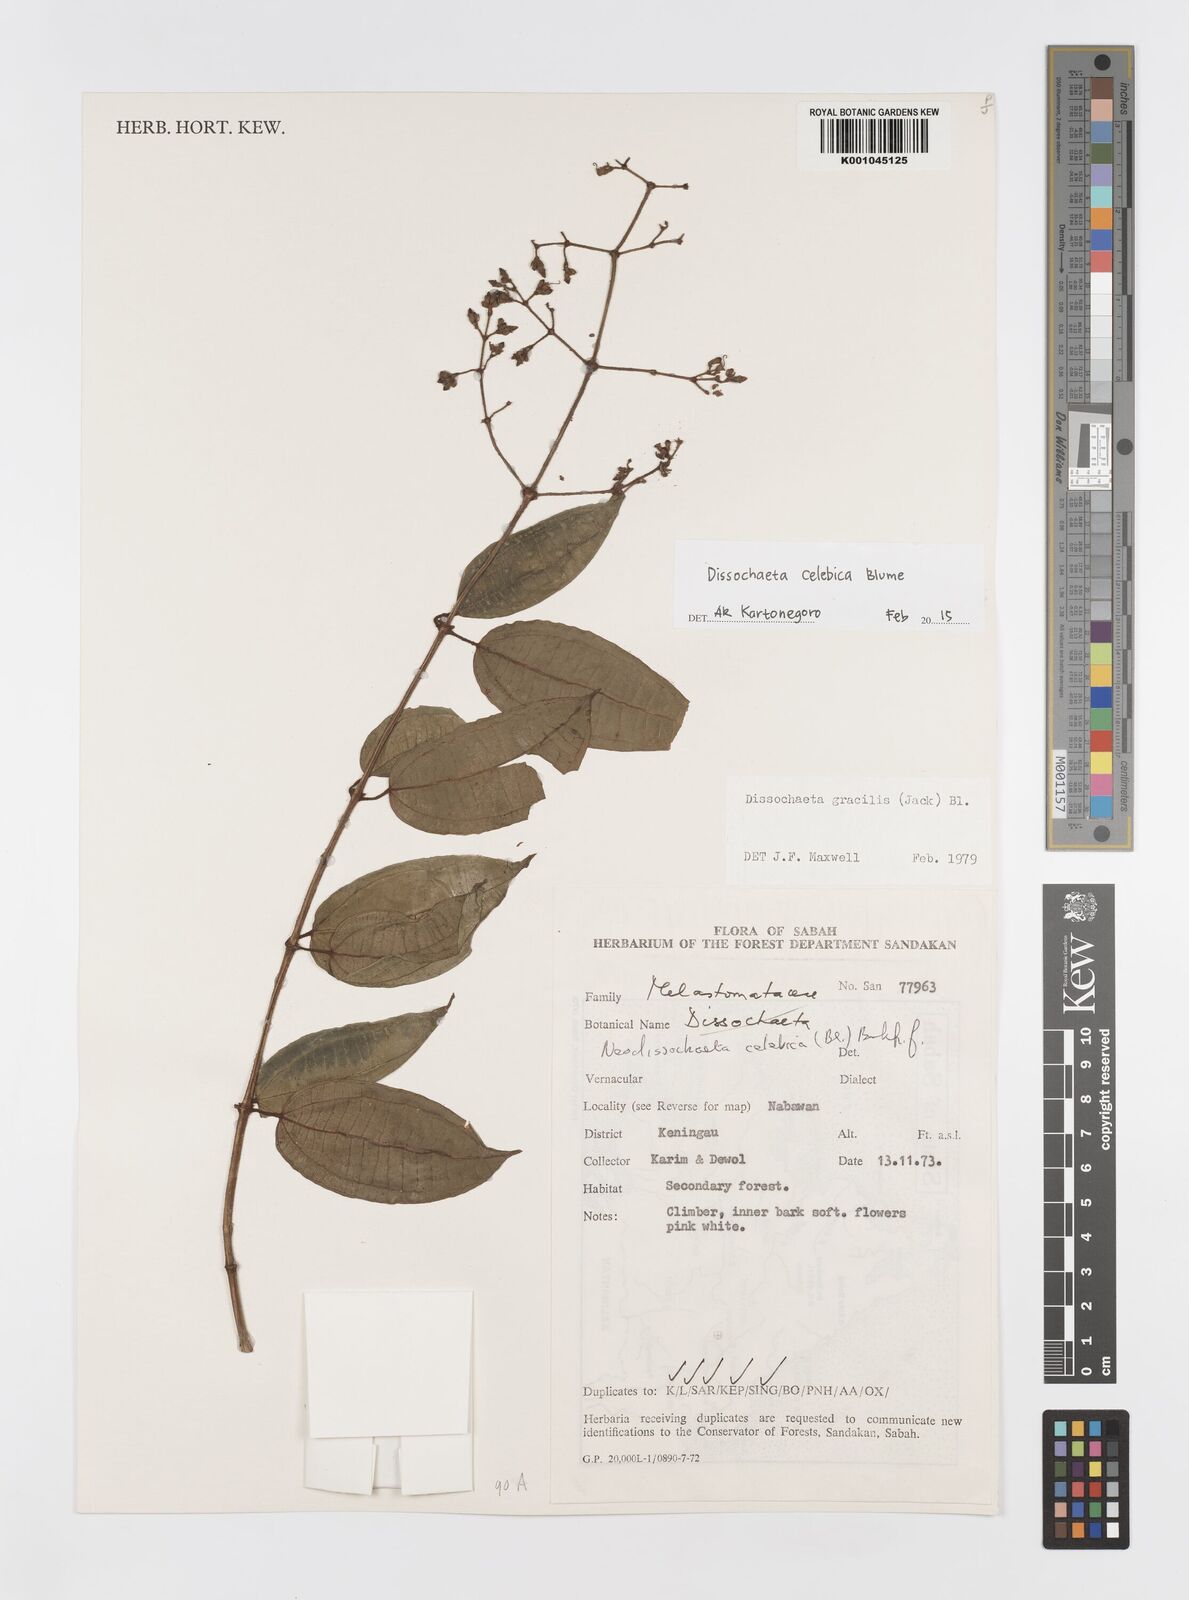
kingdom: Plantae
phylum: Tracheophyta
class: Magnoliopsida
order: Myrtales
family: Melastomataceae
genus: Dissochaeta
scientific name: Dissochaeta celebica
